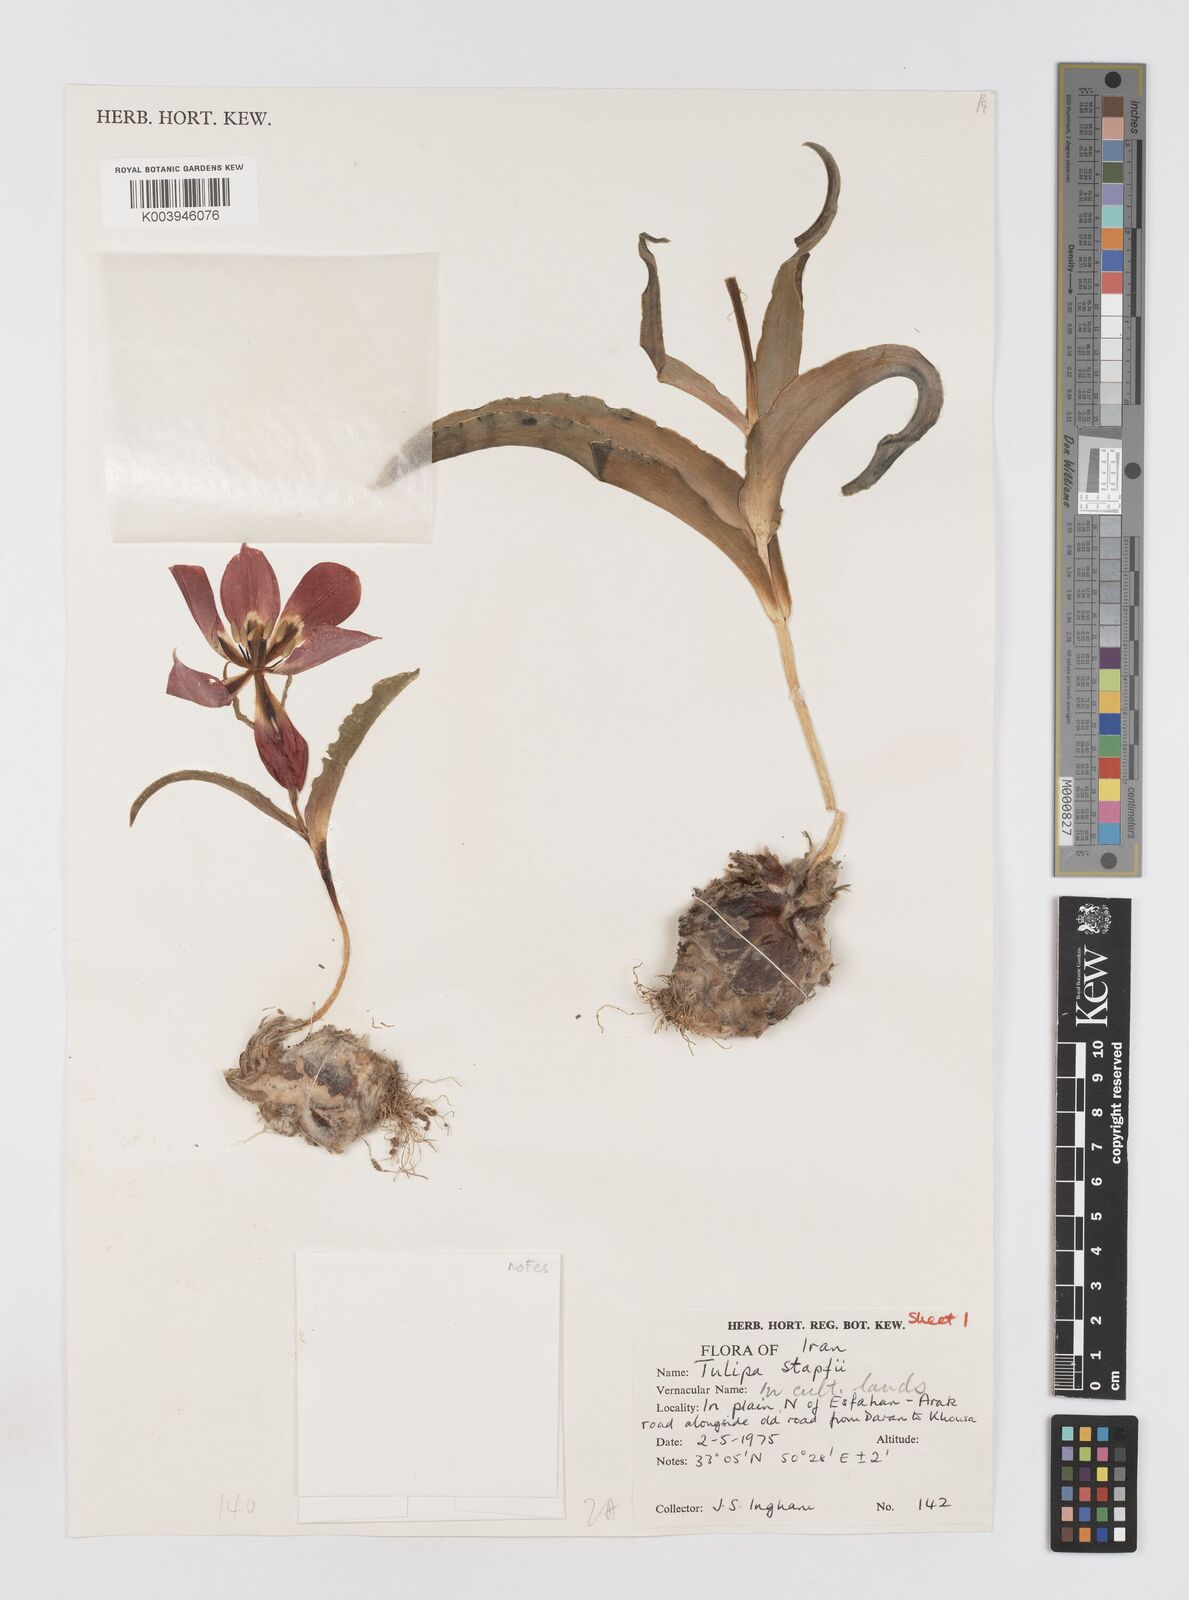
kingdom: Plantae
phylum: Tracheophyta
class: Liliopsida
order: Liliales
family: Liliaceae
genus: Tulipa
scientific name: Tulipa systola
